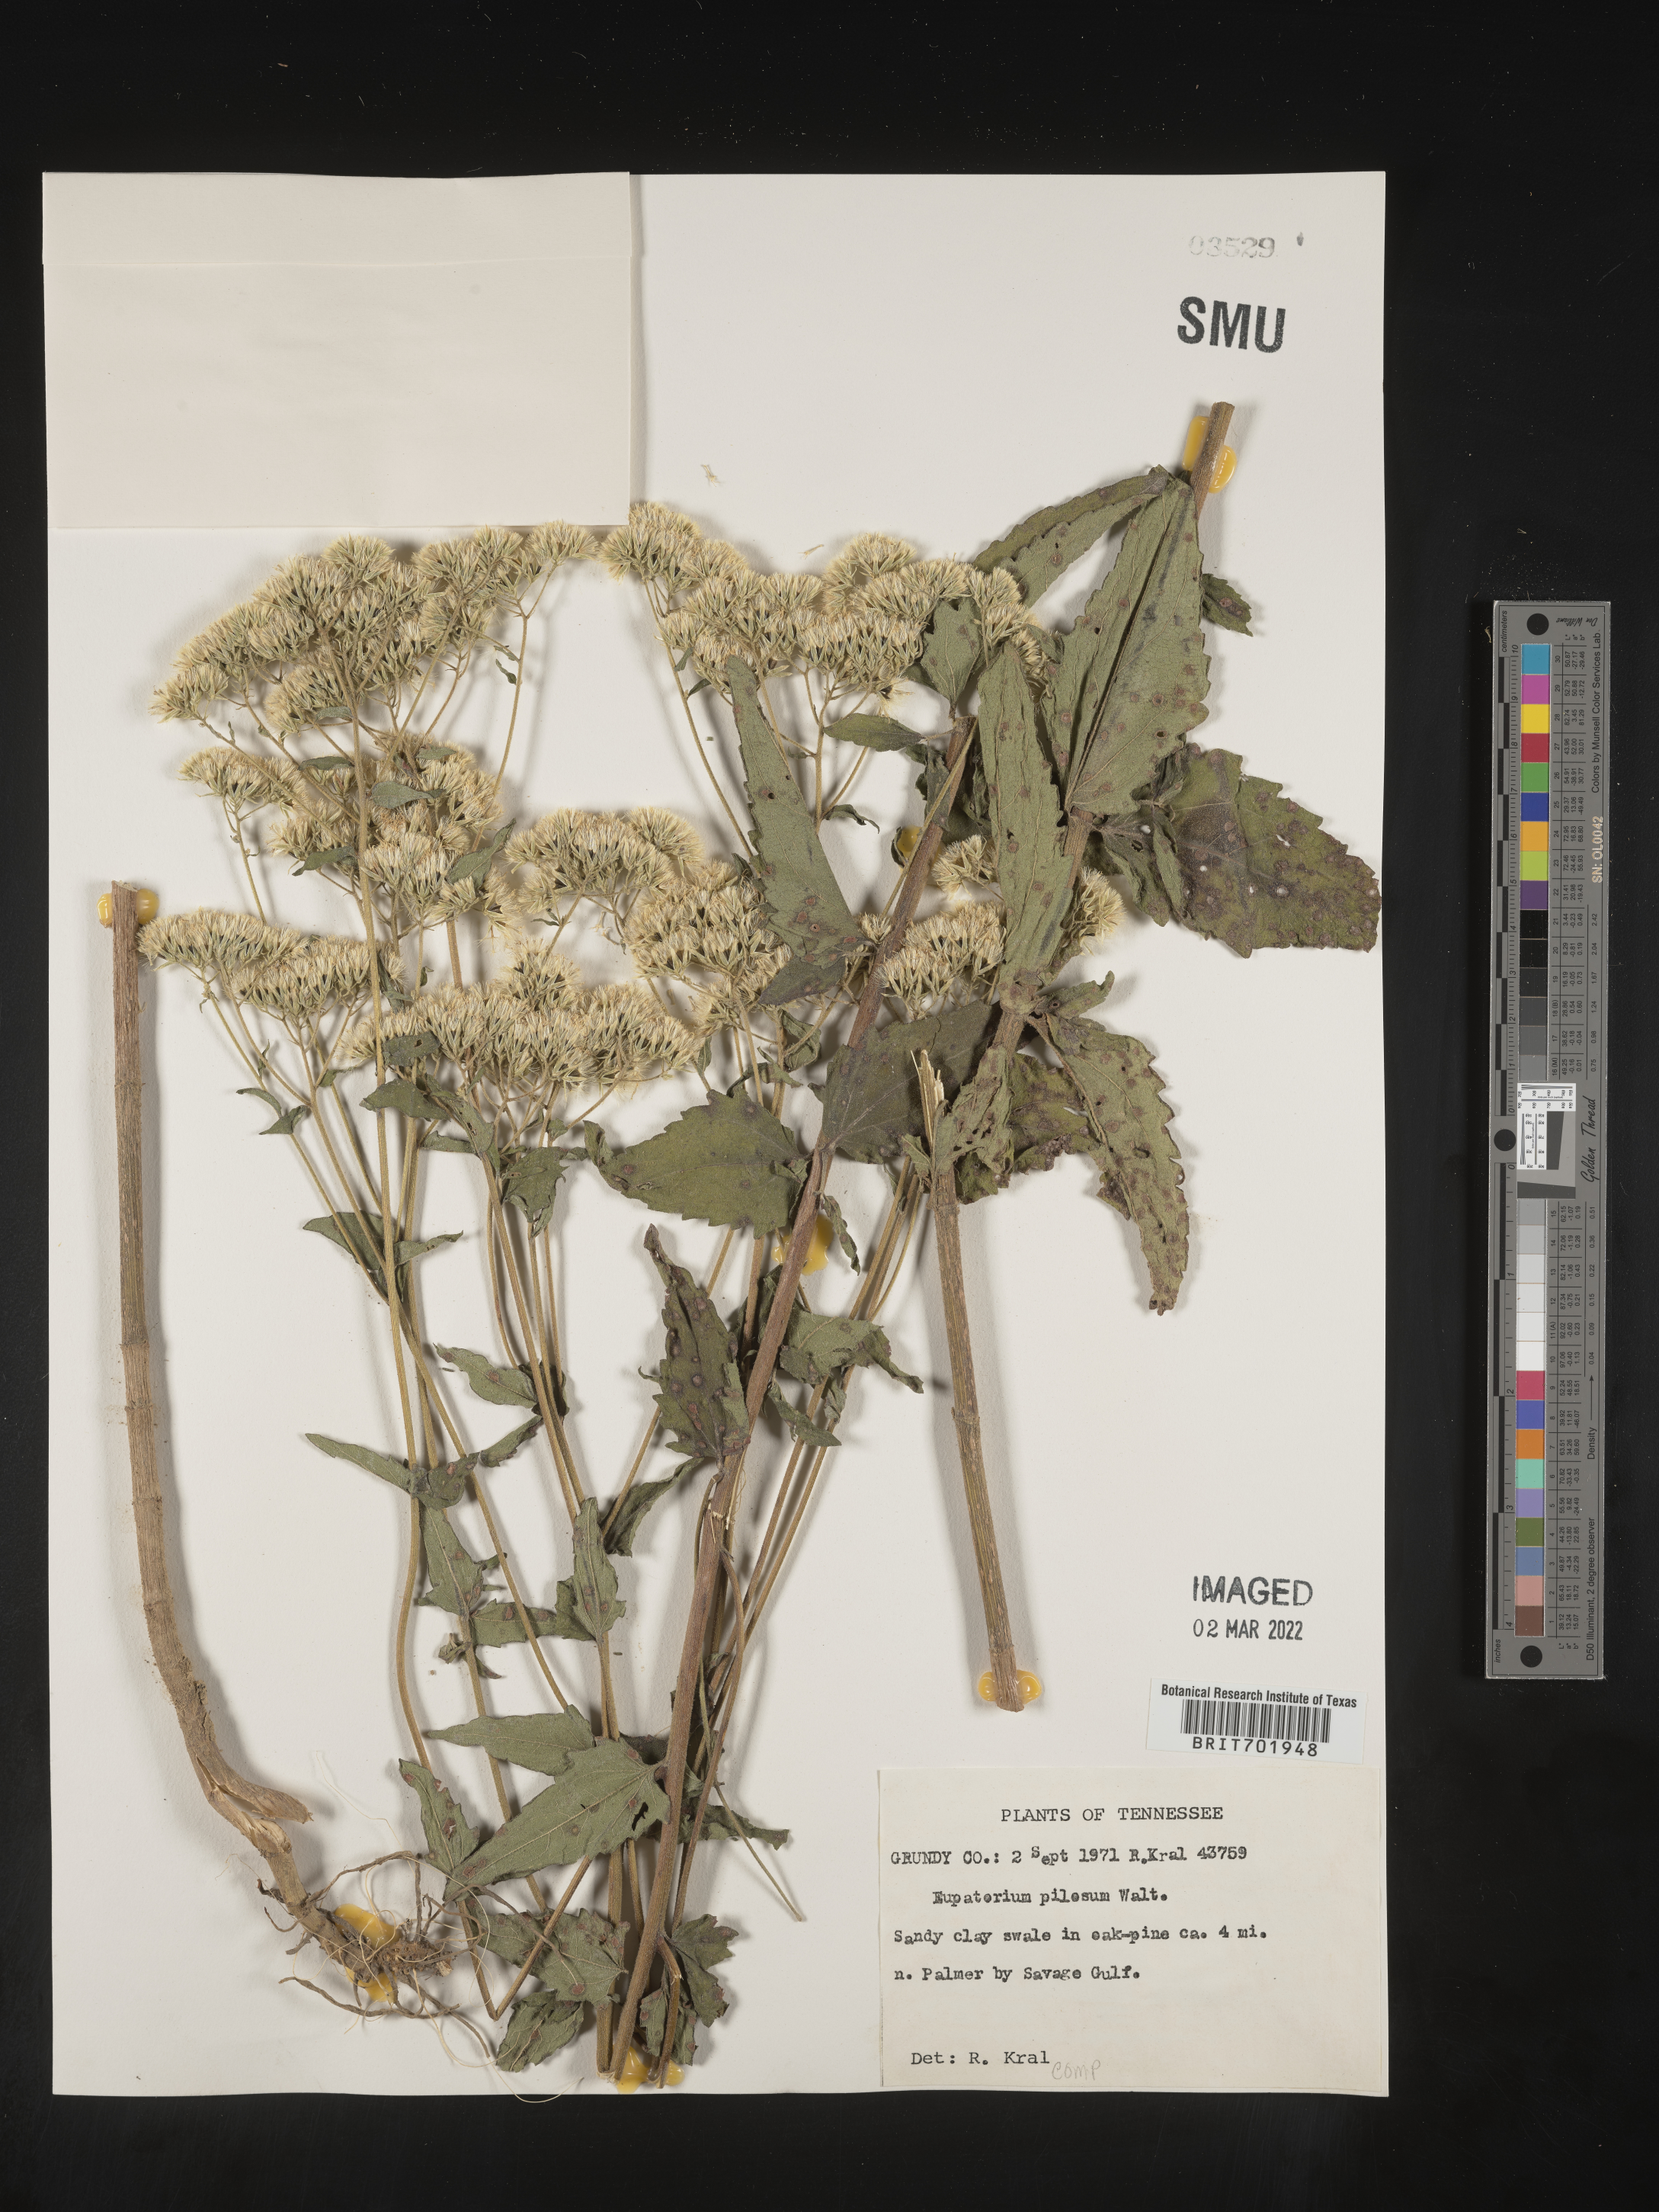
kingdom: Plantae
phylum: Tracheophyta
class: Magnoliopsida
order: Asterales
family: Asteraceae
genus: Eupatorium
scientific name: Eupatorium pilosum
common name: Rough boneset
